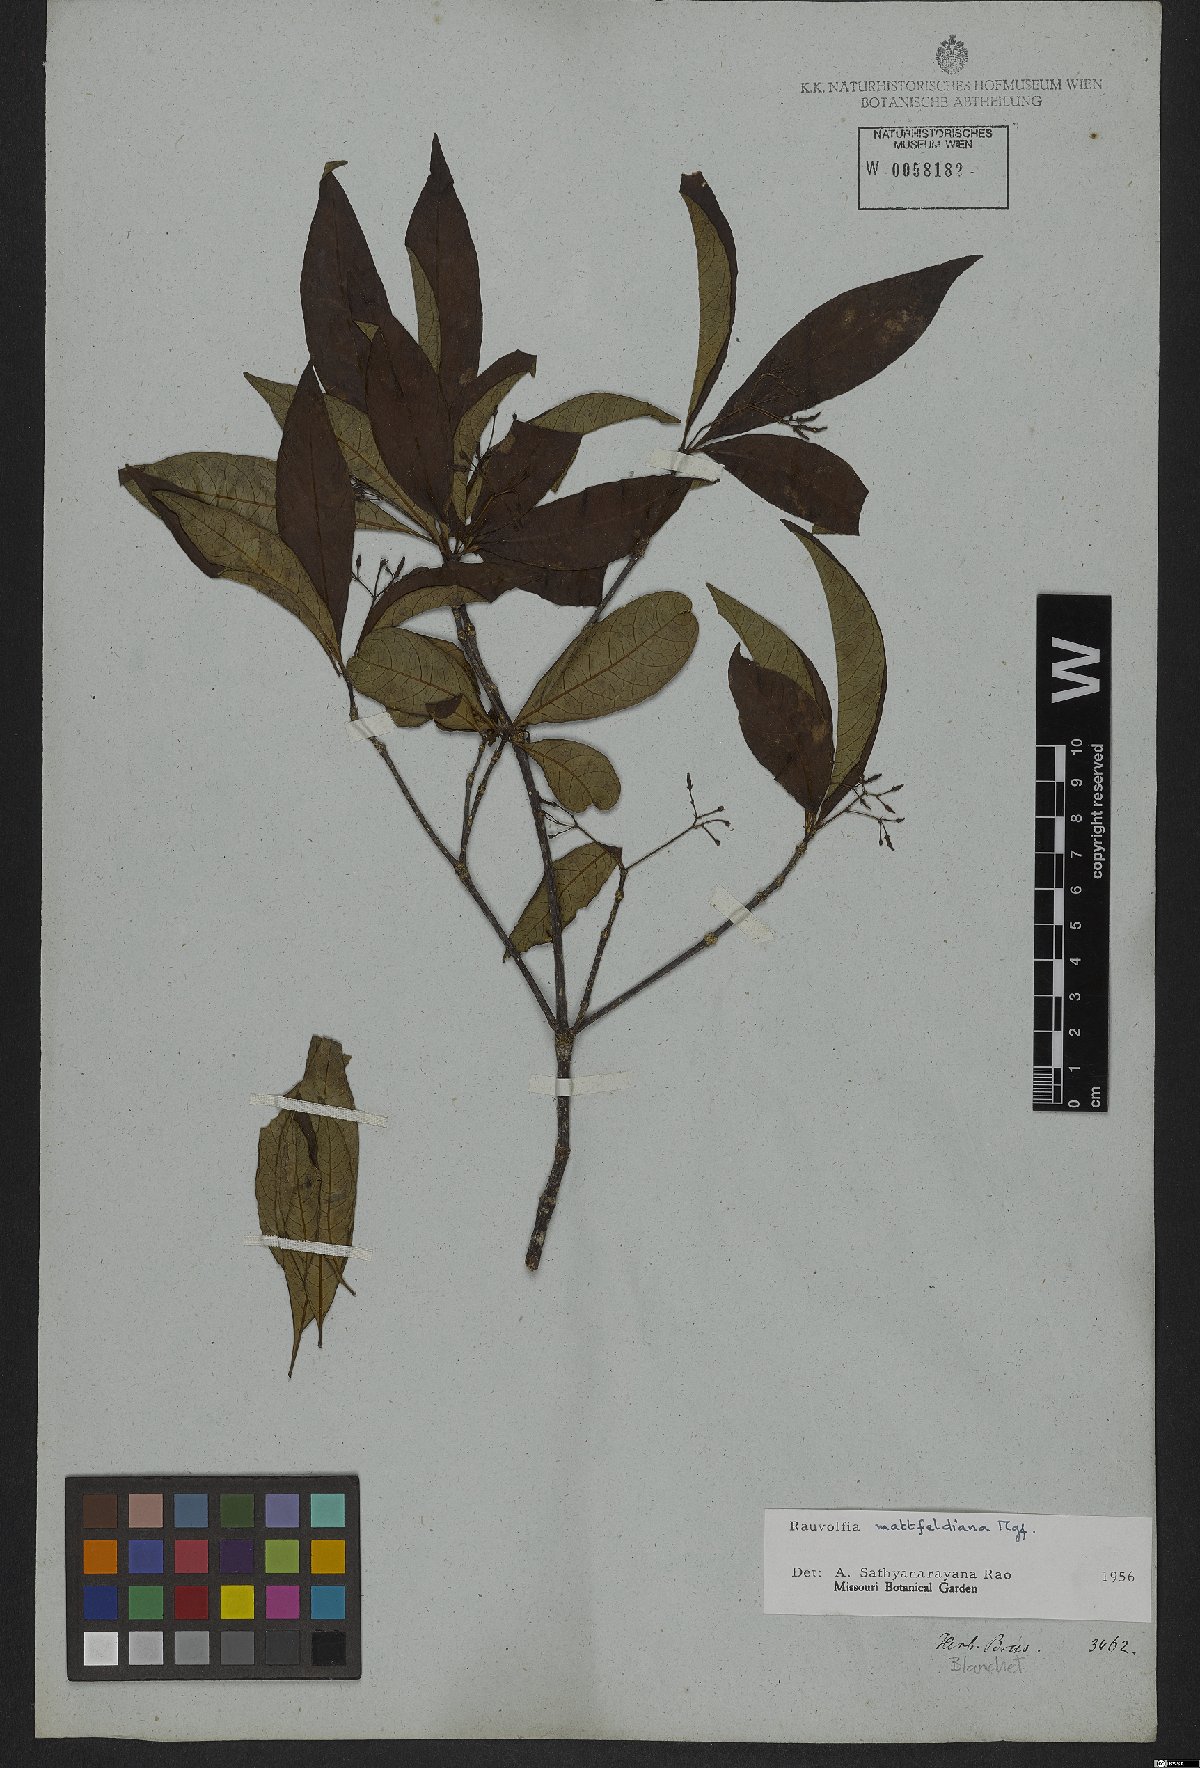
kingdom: Plantae
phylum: Tracheophyta
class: Magnoliopsida
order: Gentianales
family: Apocynaceae
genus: Rauvolfia
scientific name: Rauvolfia mattfeldiana
